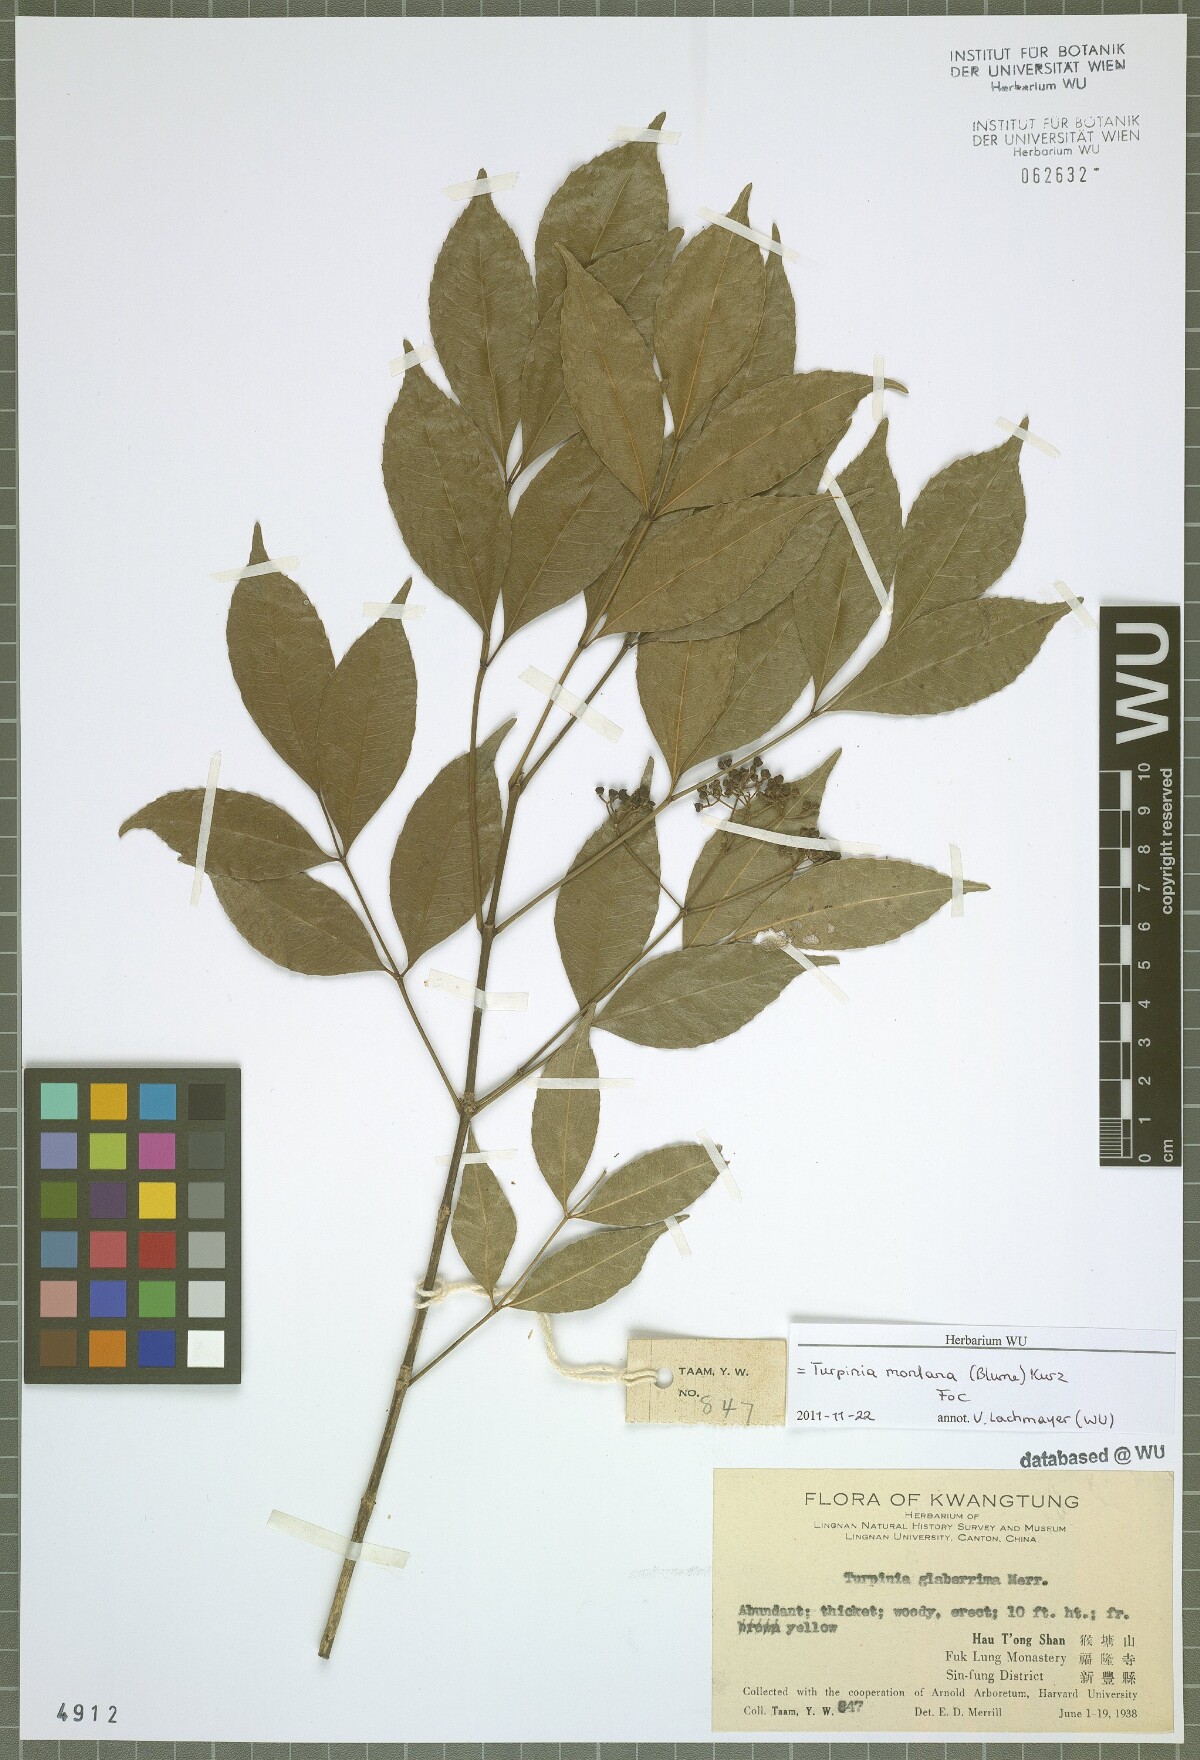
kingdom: Plantae
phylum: Tracheophyta
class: Magnoliopsida
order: Crossosomatales
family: Staphyleaceae
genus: Turpinia
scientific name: Turpinia montana
